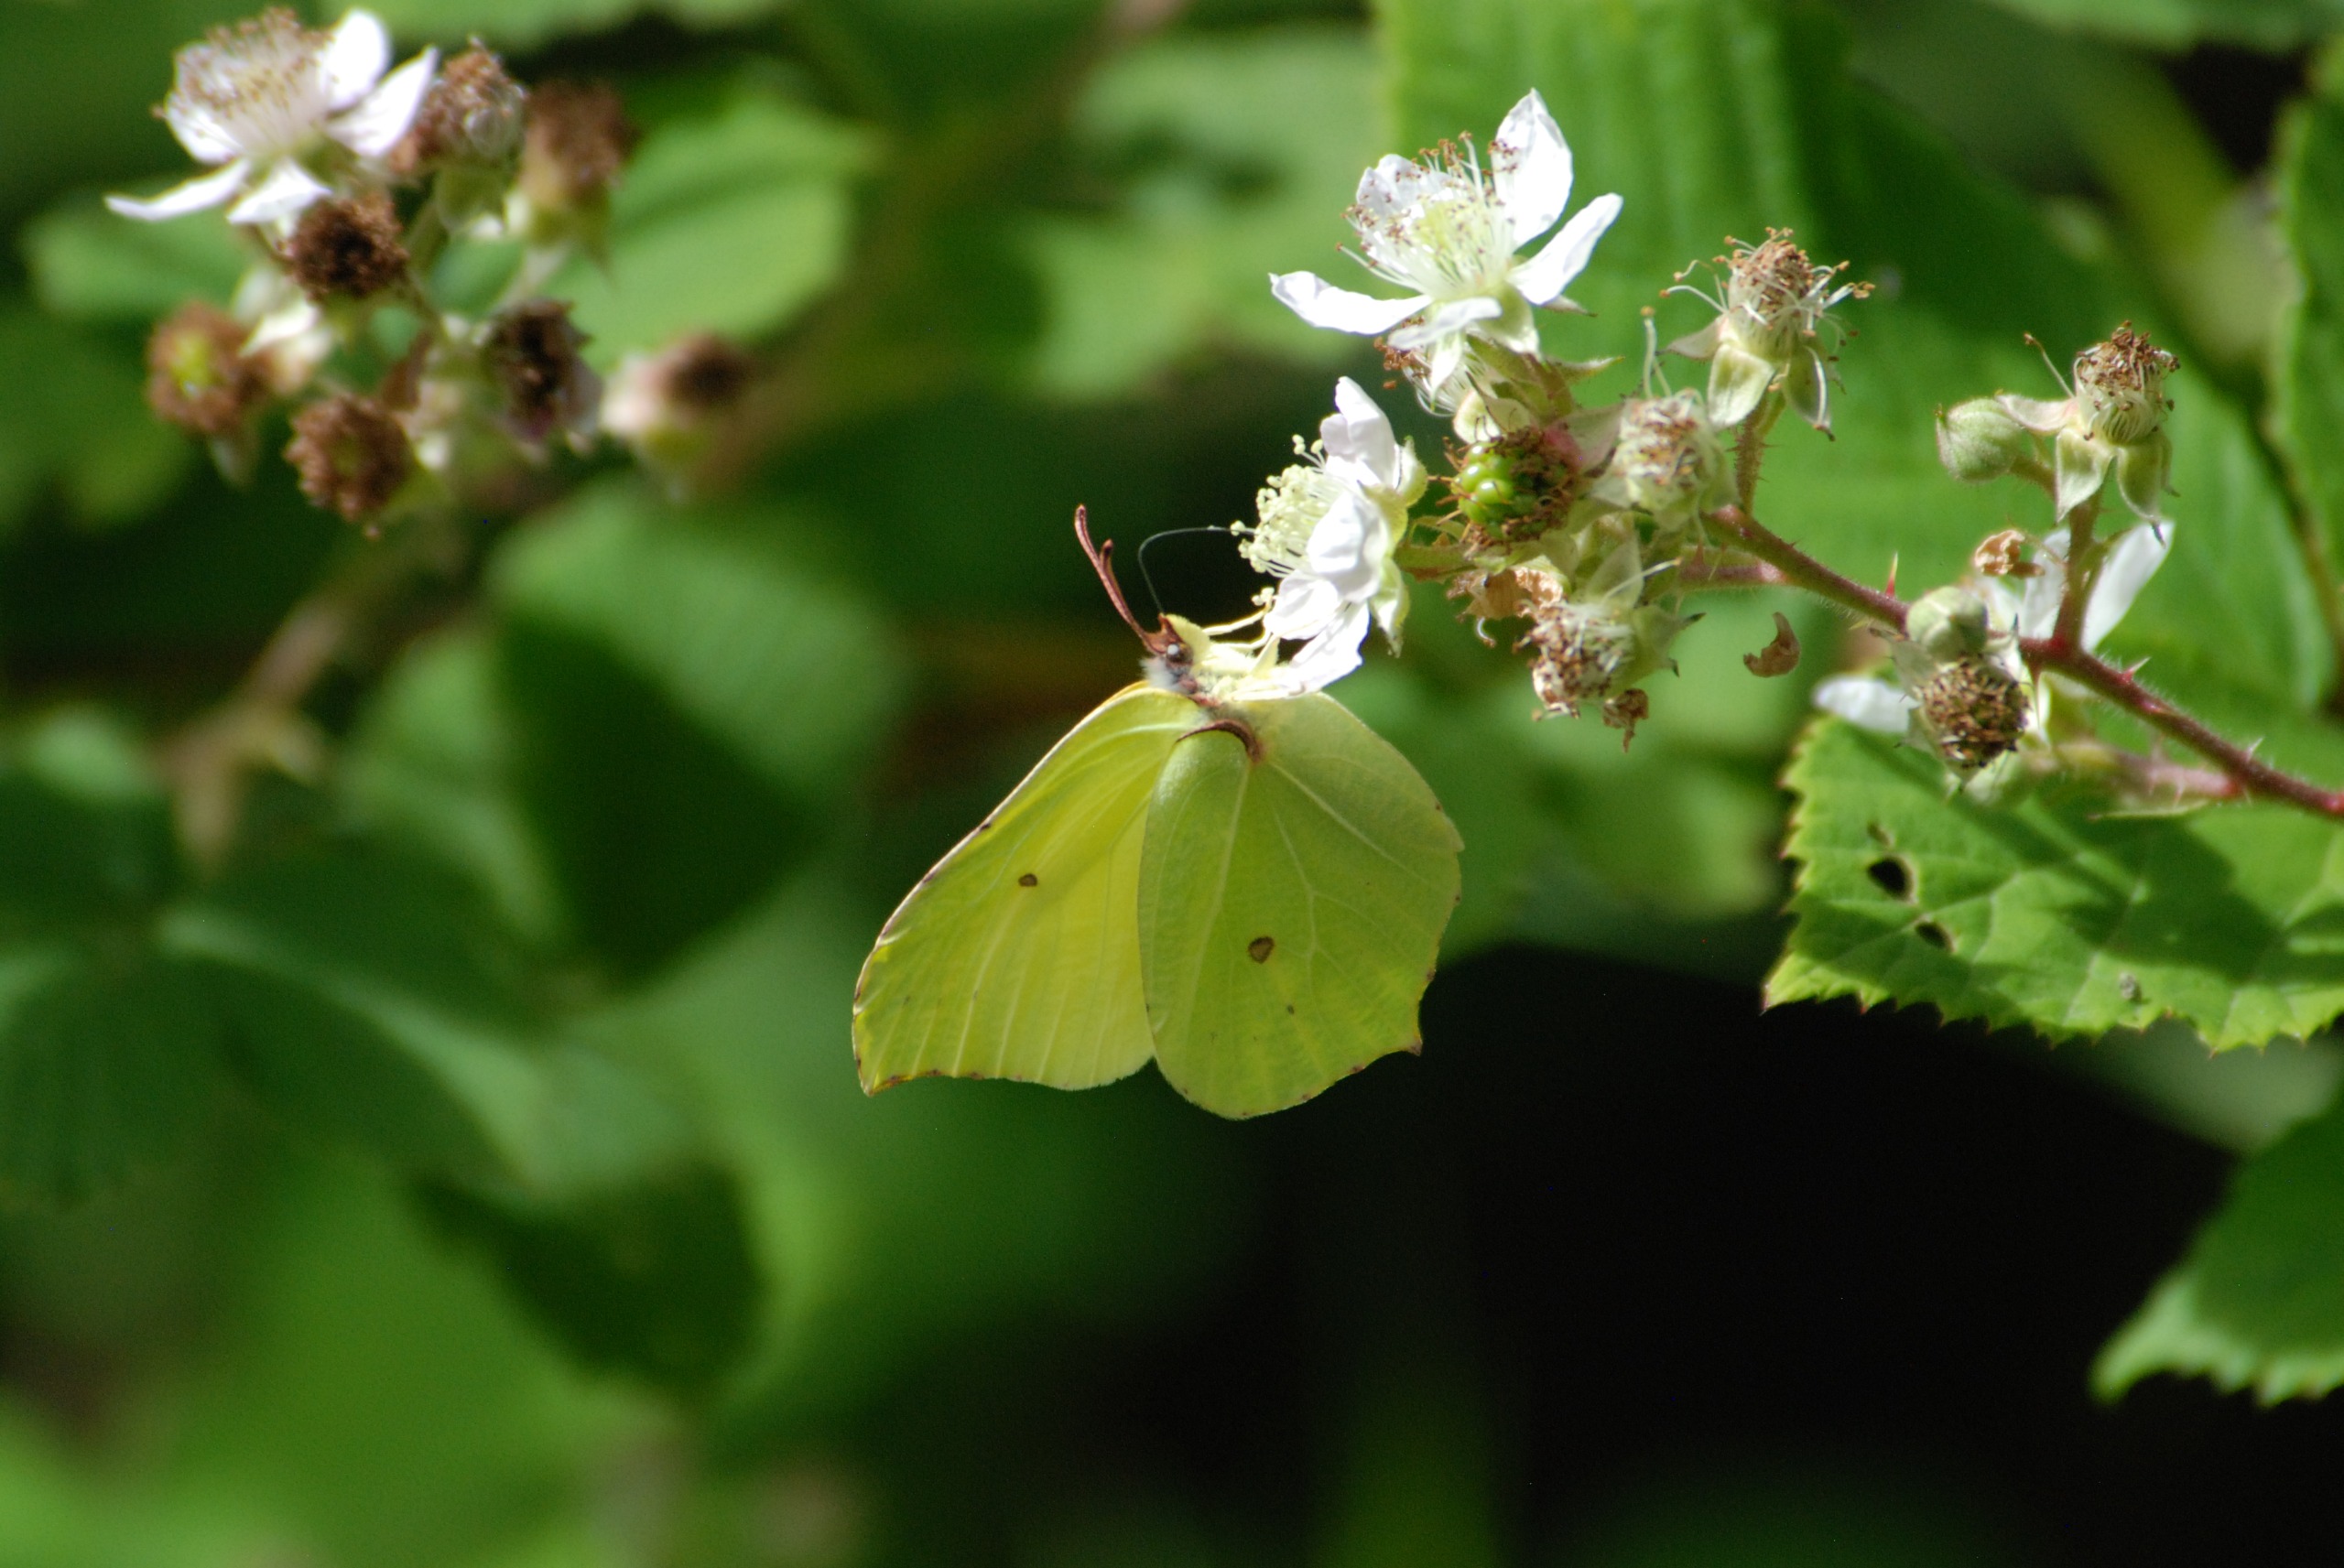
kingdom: Animalia
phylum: Arthropoda
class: Insecta
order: Lepidoptera
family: Pieridae
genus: Gonepteryx
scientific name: Gonepteryx rhamni
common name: Citronsommerfugl
